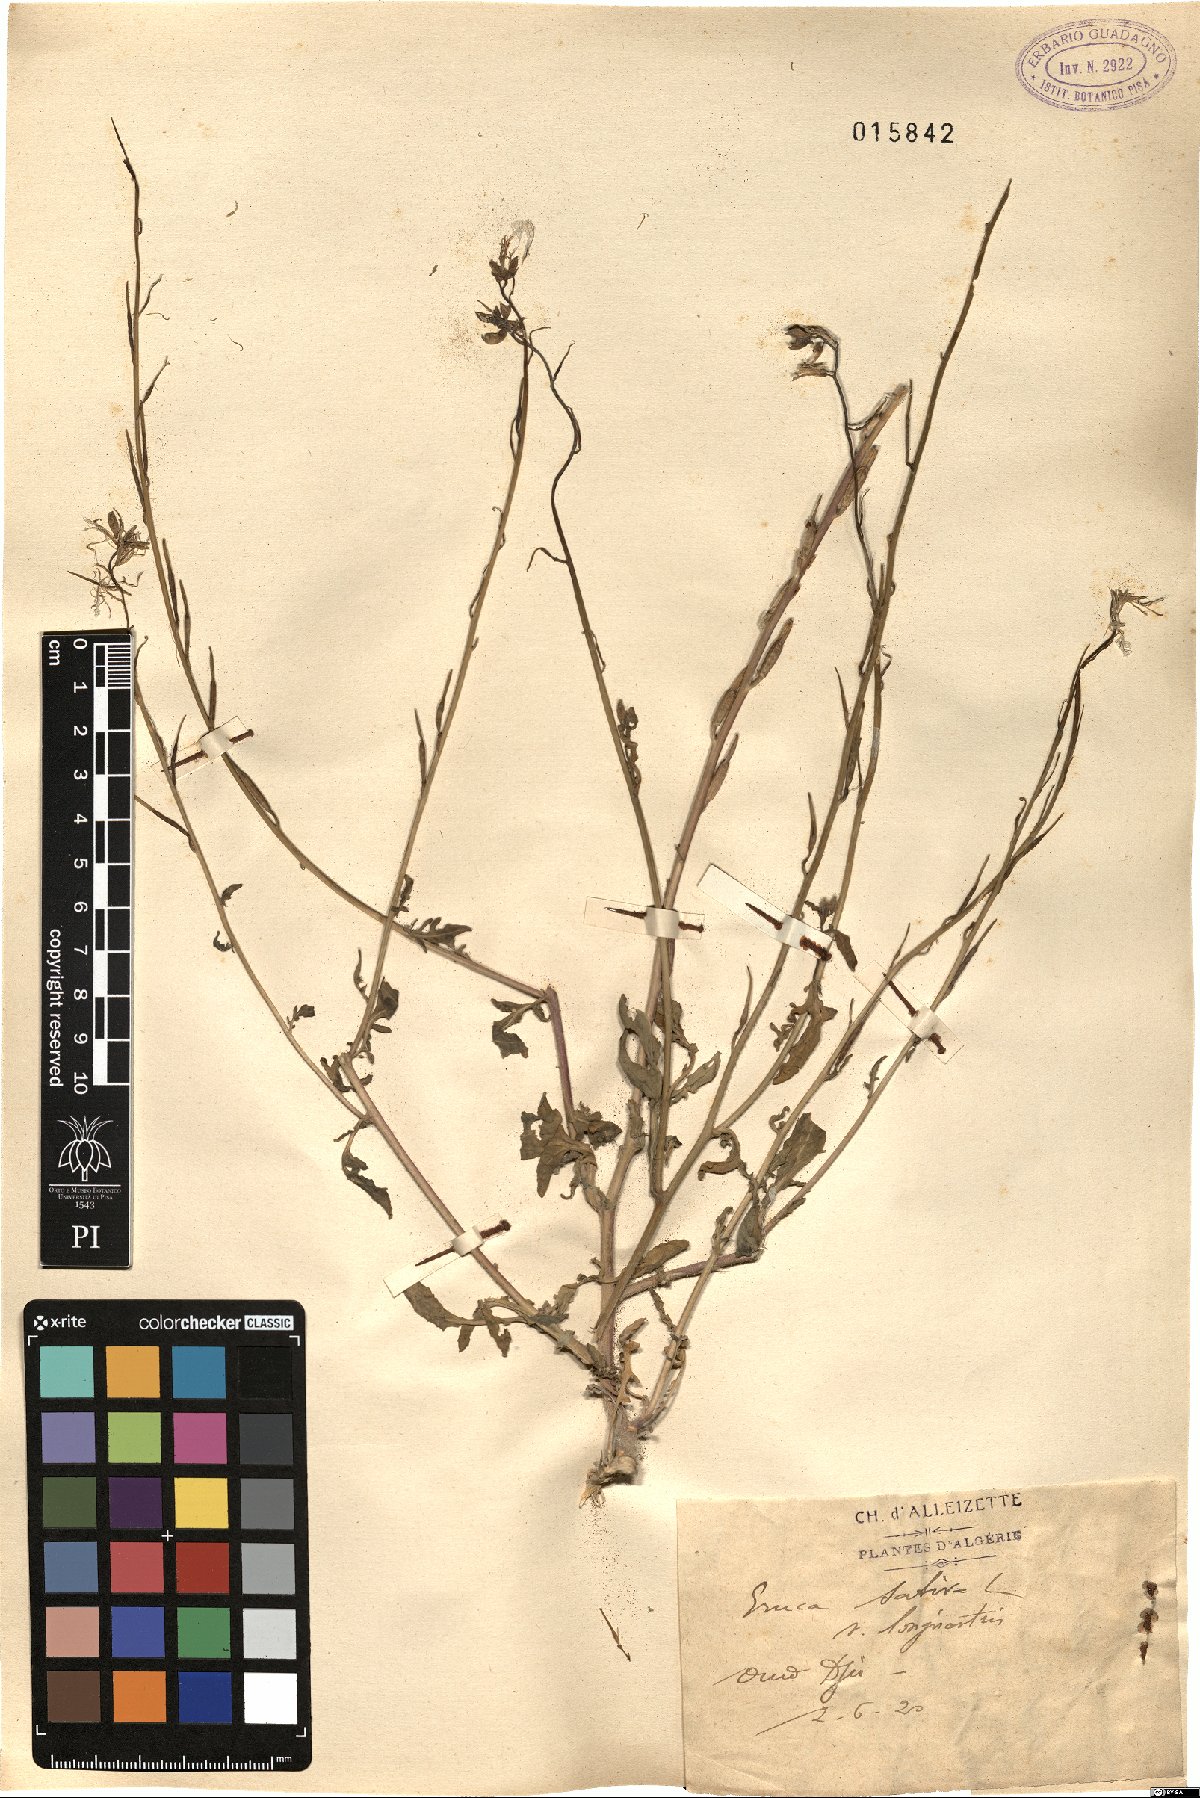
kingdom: Plantae
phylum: Tracheophyta
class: Magnoliopsida
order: Brassicales
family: Brassicaceae
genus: Eruca
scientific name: Eruca vesicaria
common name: Garden rocket
